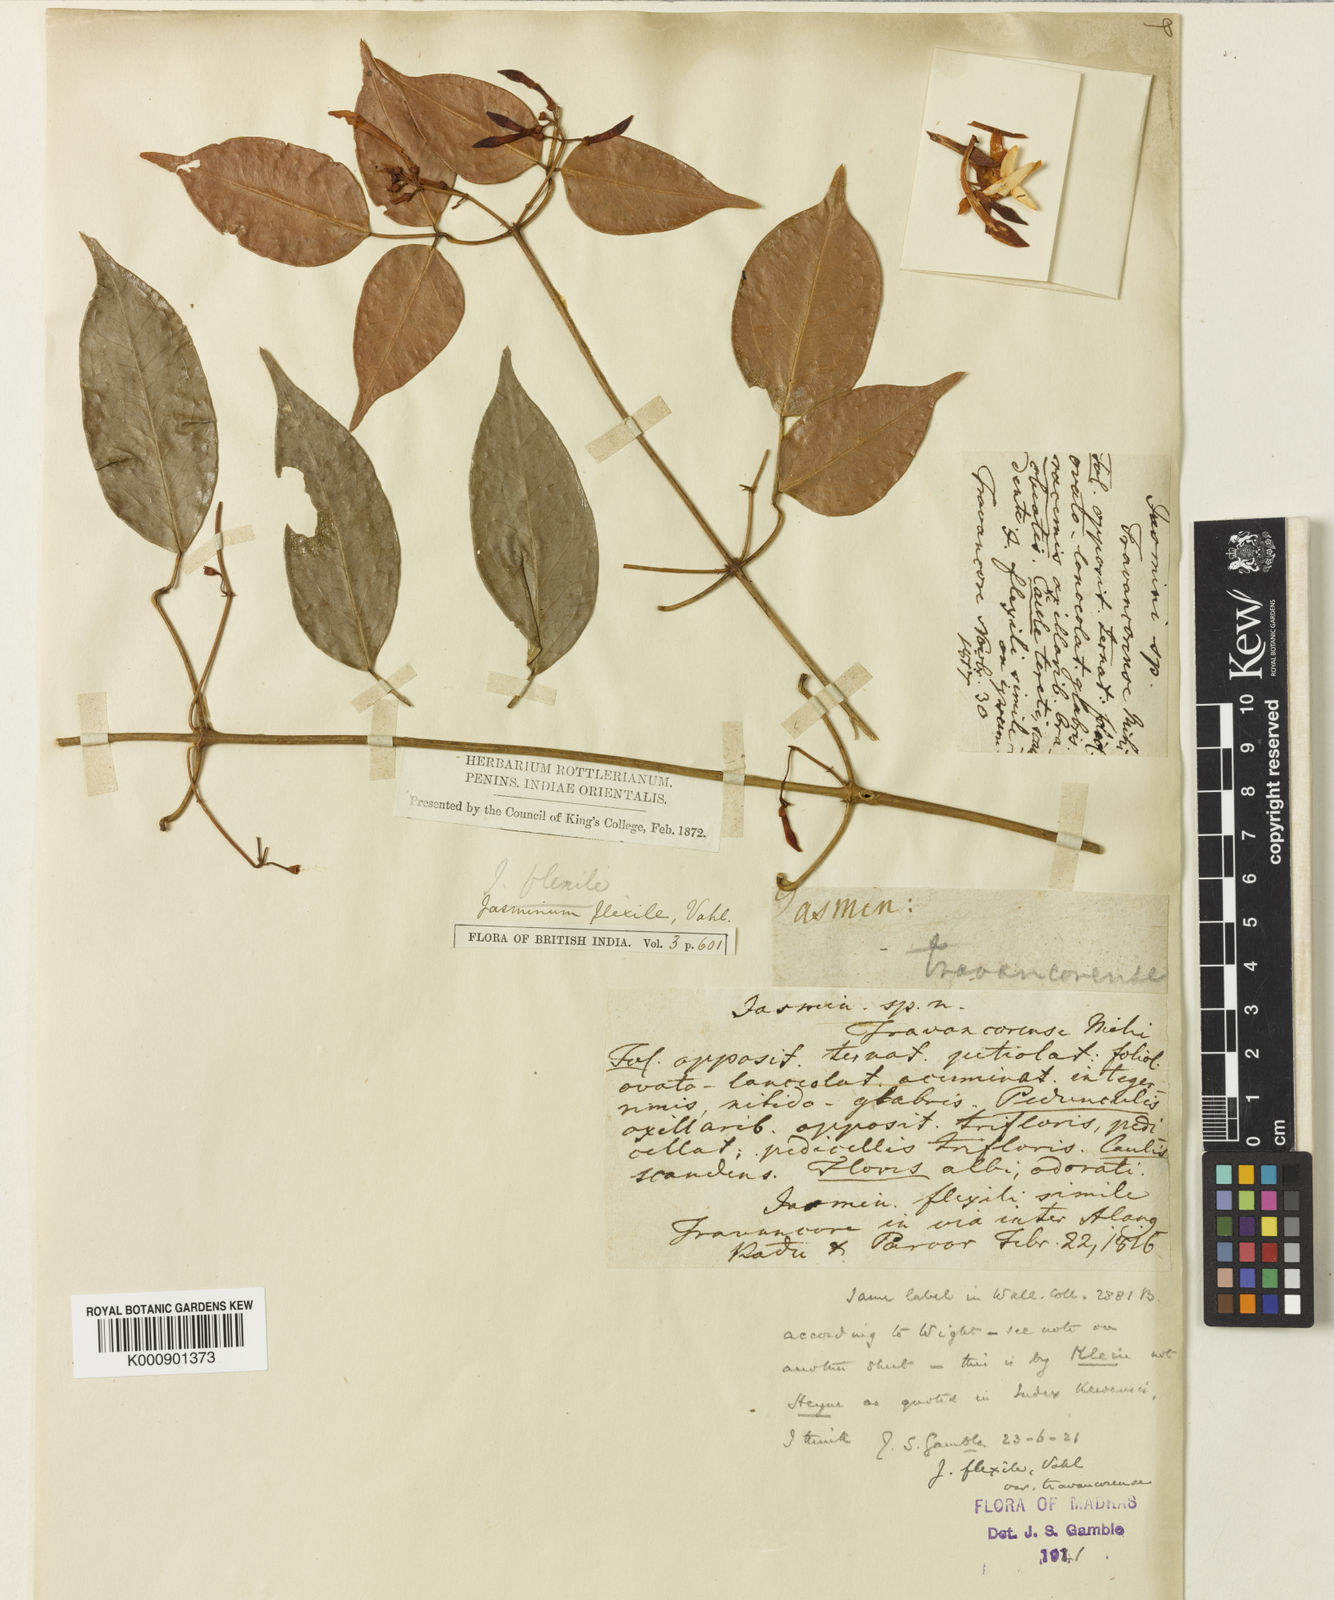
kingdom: Plantae
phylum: Tracheophyta
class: Magnoliopsida
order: Lamiales
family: Oleaceae
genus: Jasminum
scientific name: Jasminum flexile
